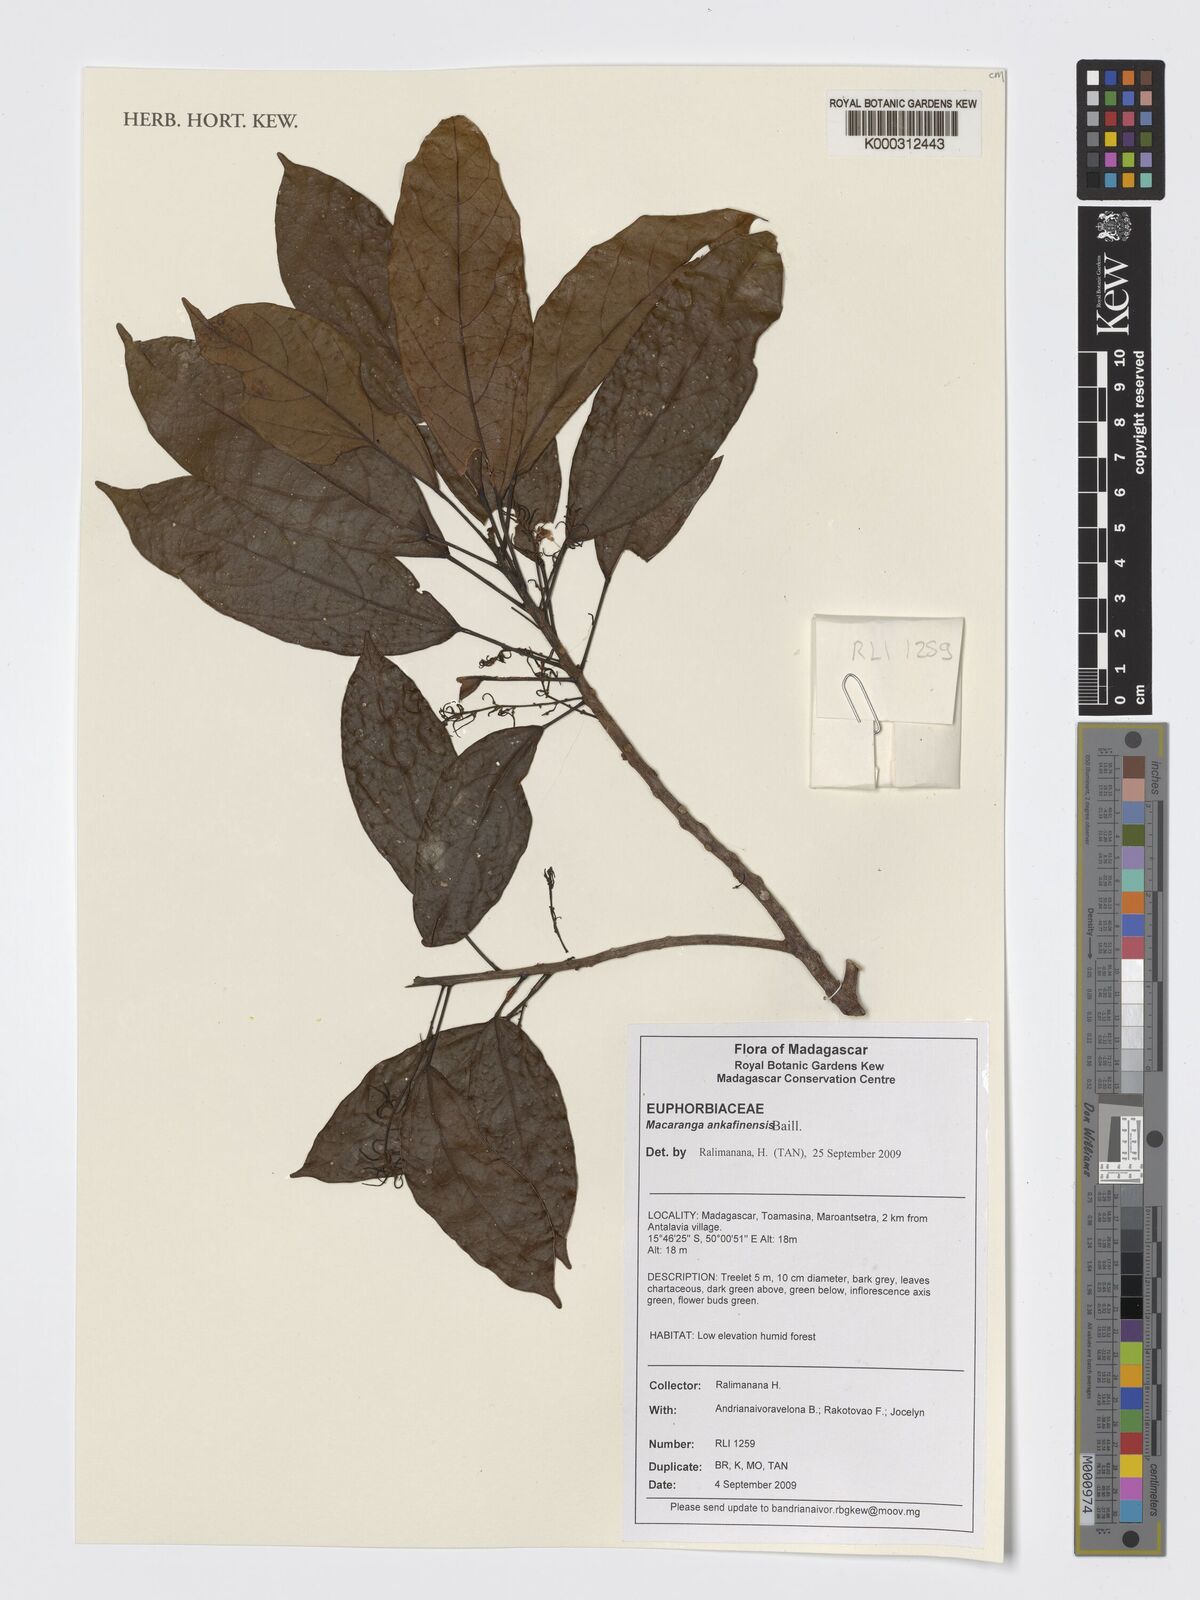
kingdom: Plantae
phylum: Tracheophyta
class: Magnoliopsida
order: Malpighiales
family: Euphorbiaceae
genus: Orfilea
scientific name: Orfilea ankafinensis
